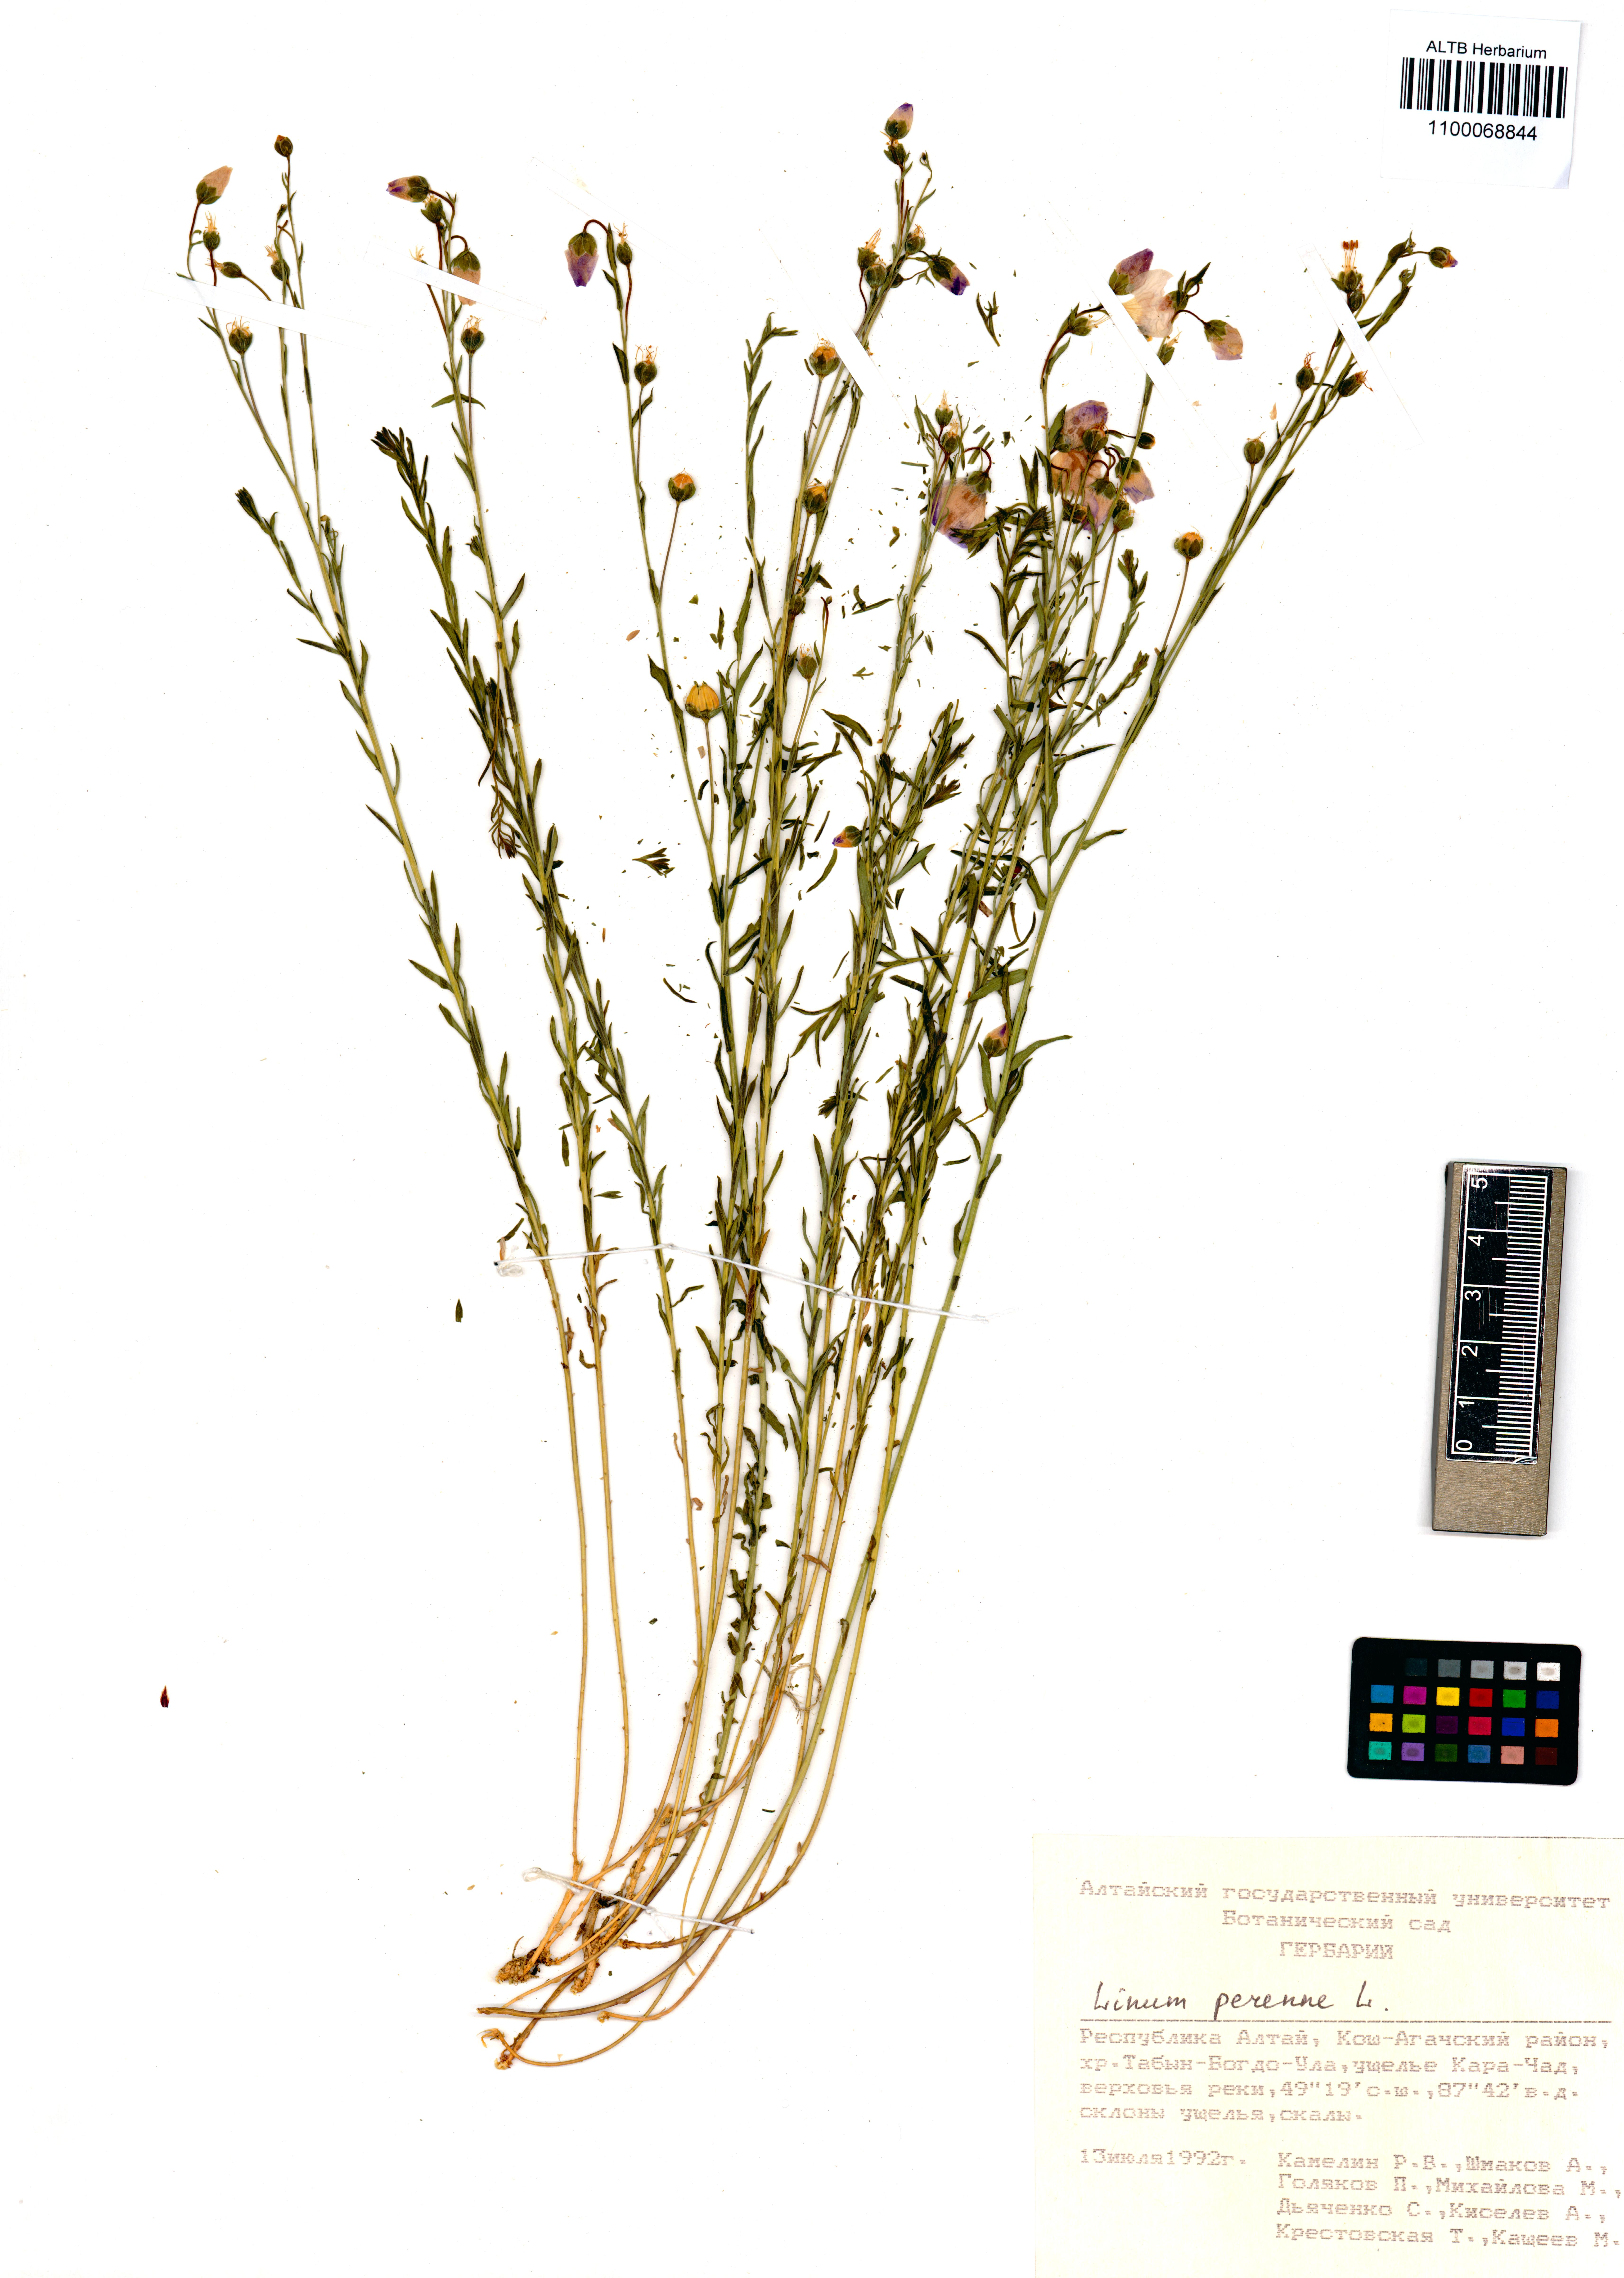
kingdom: Plantae
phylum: Tracheophyta
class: Magnoliopsida
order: Malpighiales
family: Linaceae
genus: Linum
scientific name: Linum perenne
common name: Blue flax
